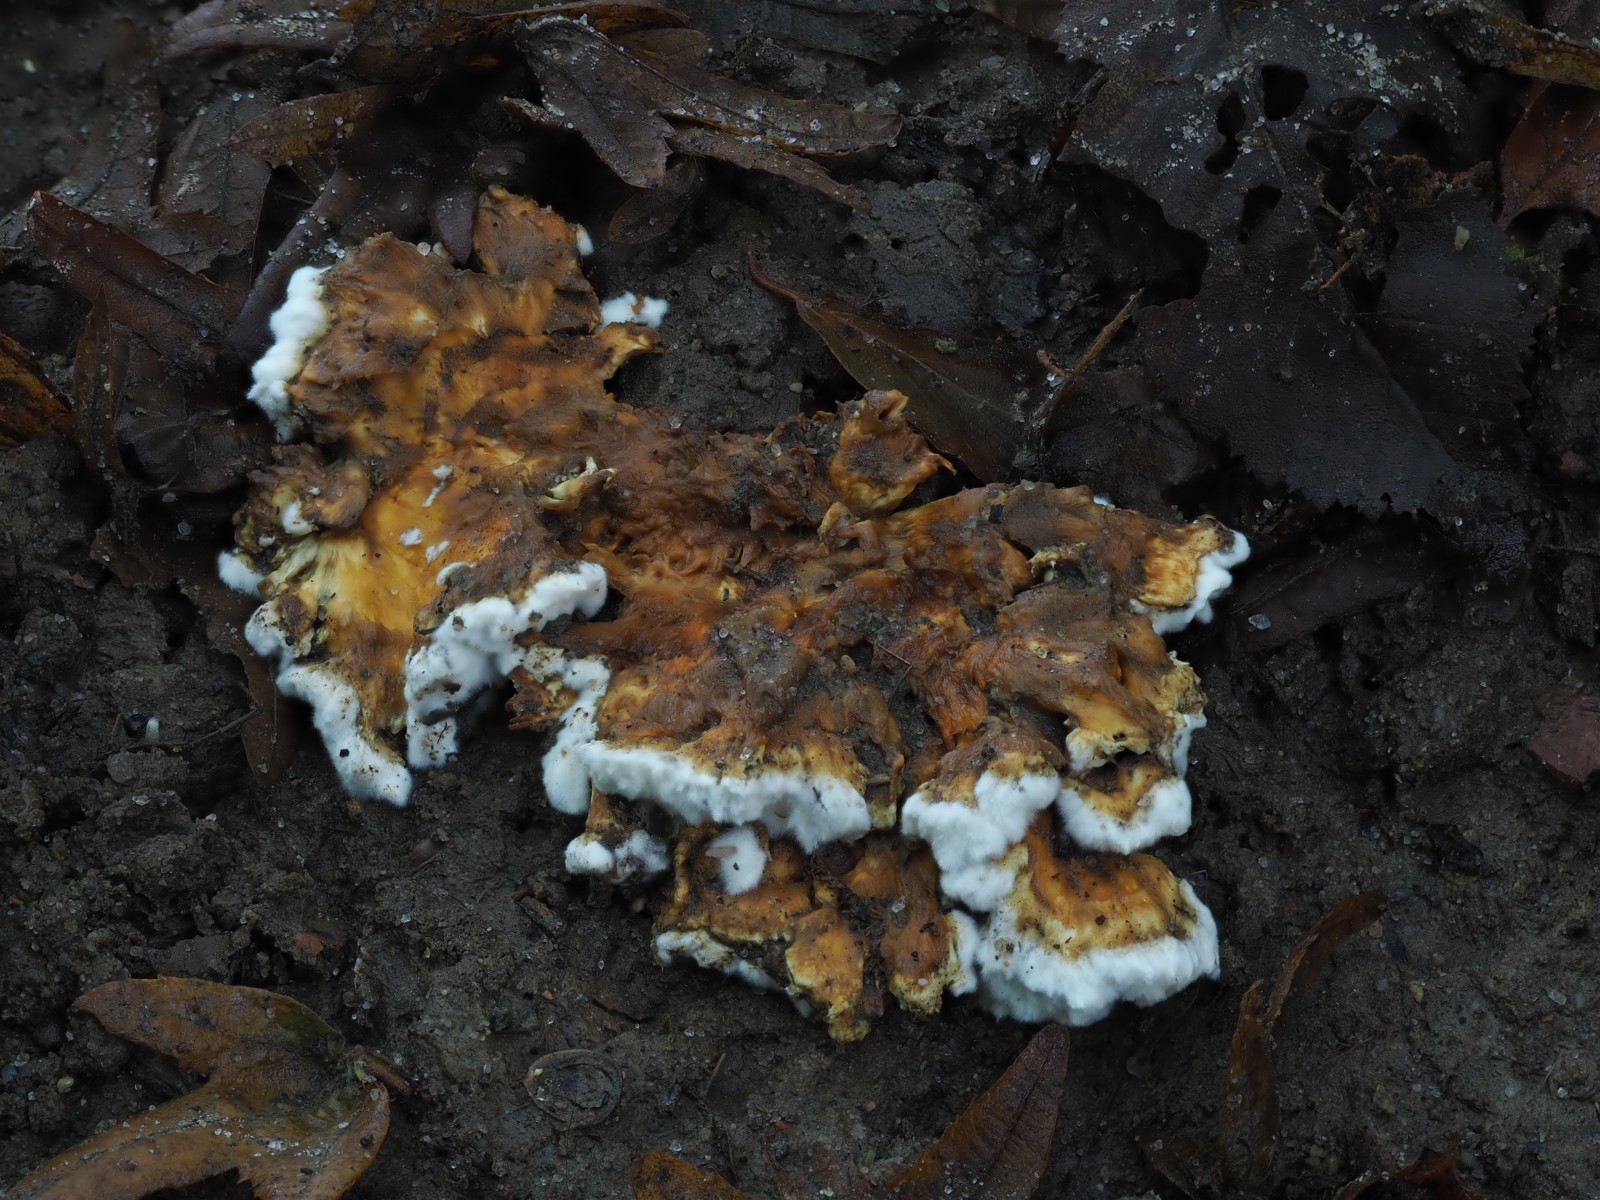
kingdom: Fungi
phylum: Basidiomycota
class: Agaricomycetes
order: Polyporales
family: Steccherinaceae
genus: Loweomyces
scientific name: Loweomyces wynneae
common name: krybende blødporesvamp
